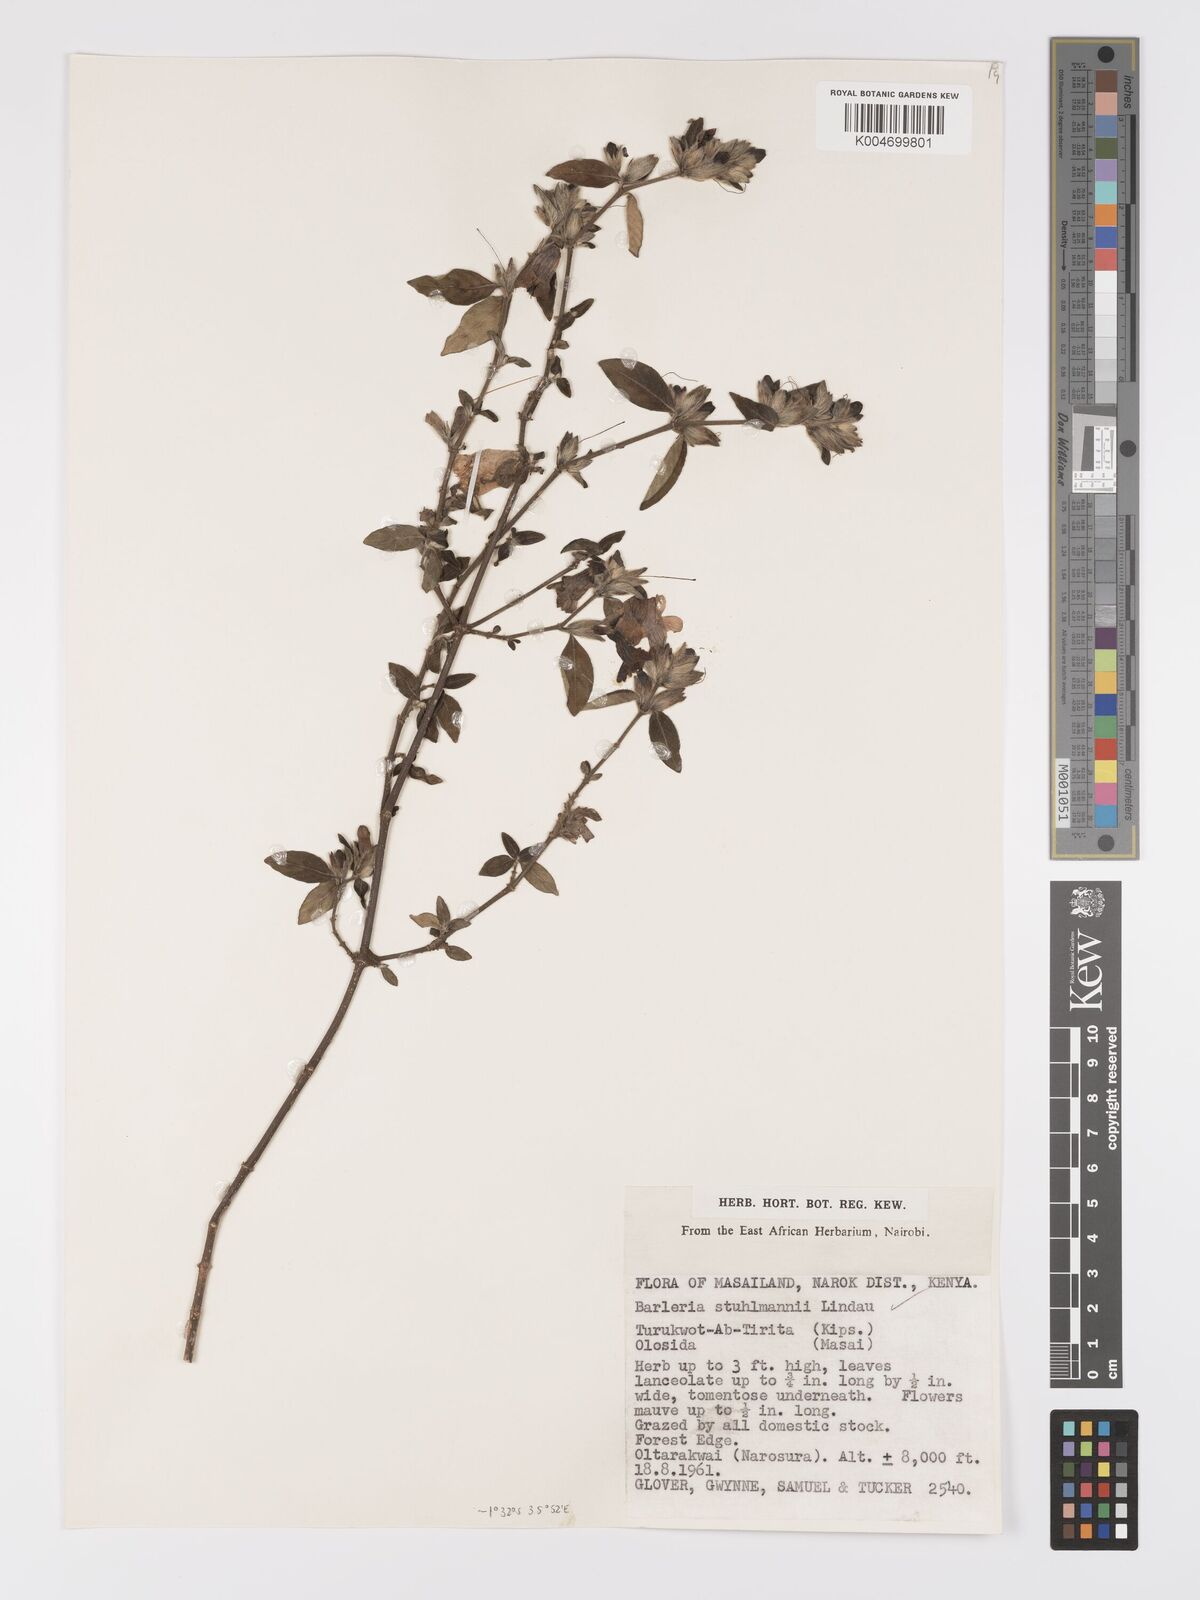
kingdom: Plantae
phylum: Tracheophyta
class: Magnoliopsida
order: Lamiales
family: Acanthaceae
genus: Barleria
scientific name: Barleria ventricosa
